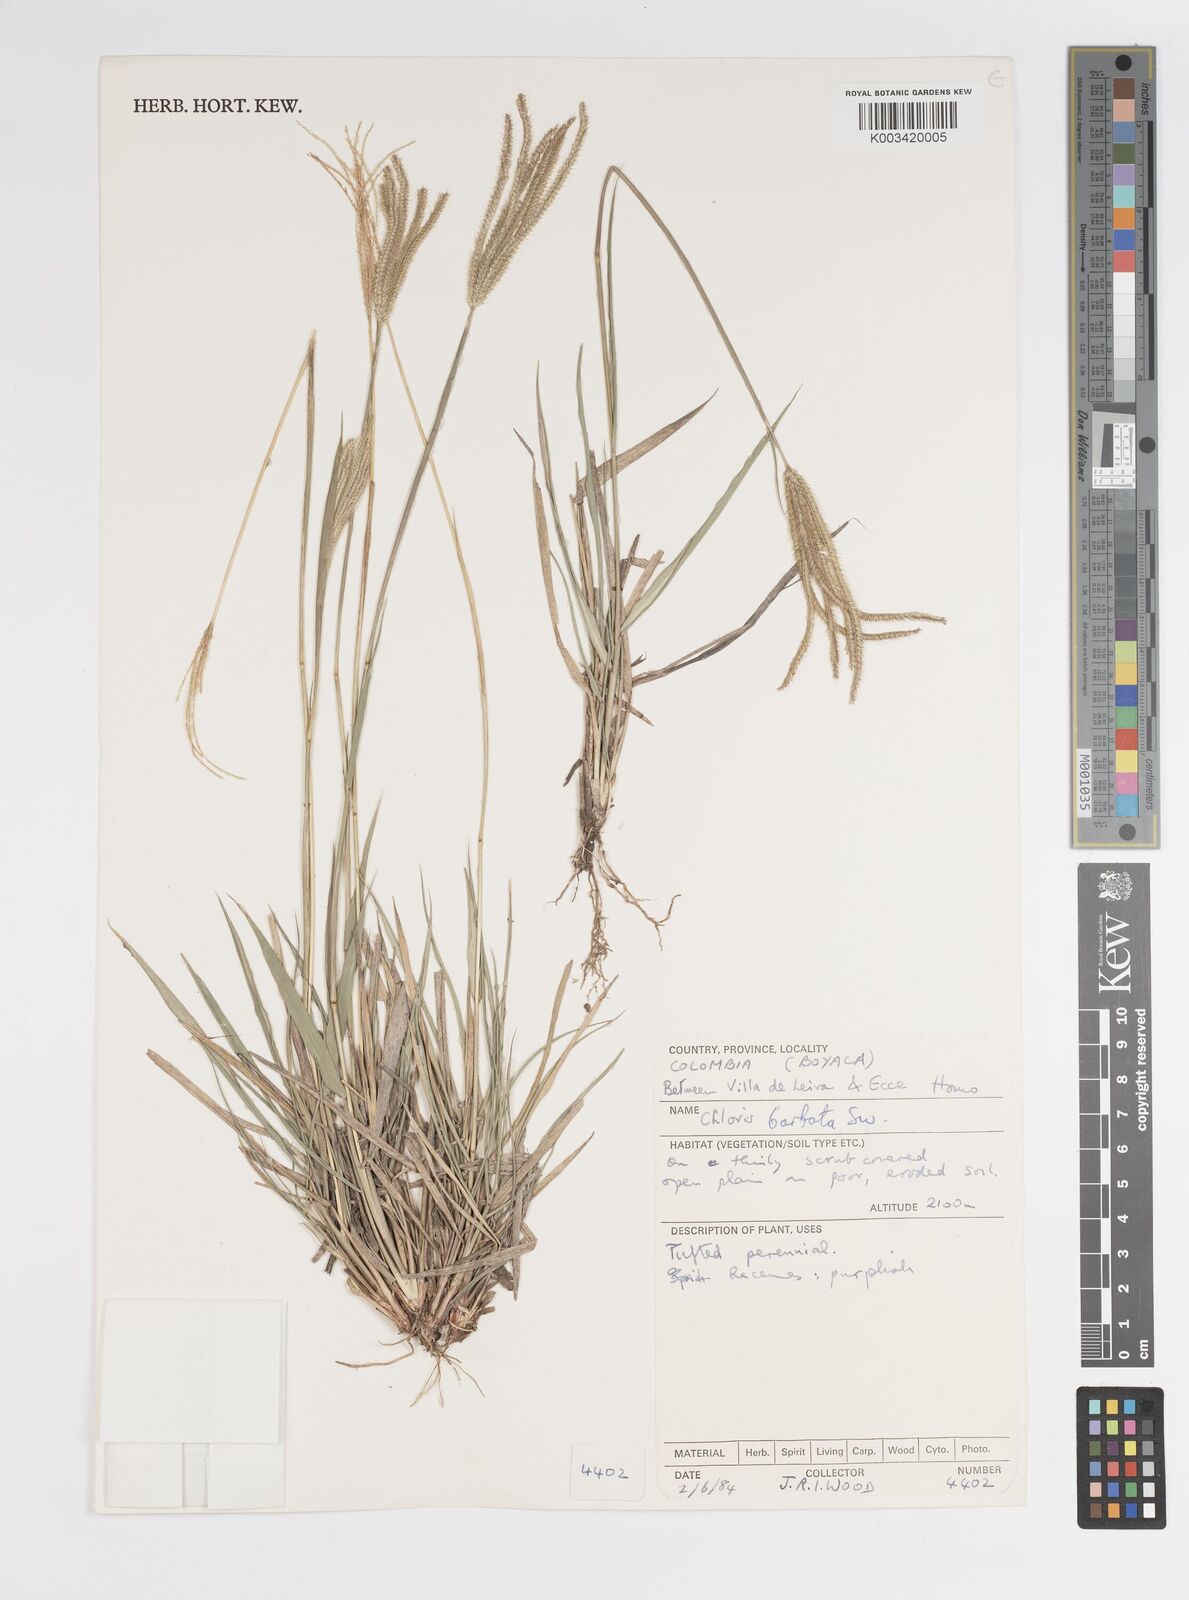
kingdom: Plantae
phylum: Tracheophyta
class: Liliopsida
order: Poales
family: Poaceae
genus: Stapfochloa
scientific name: Stapfochloa elata
